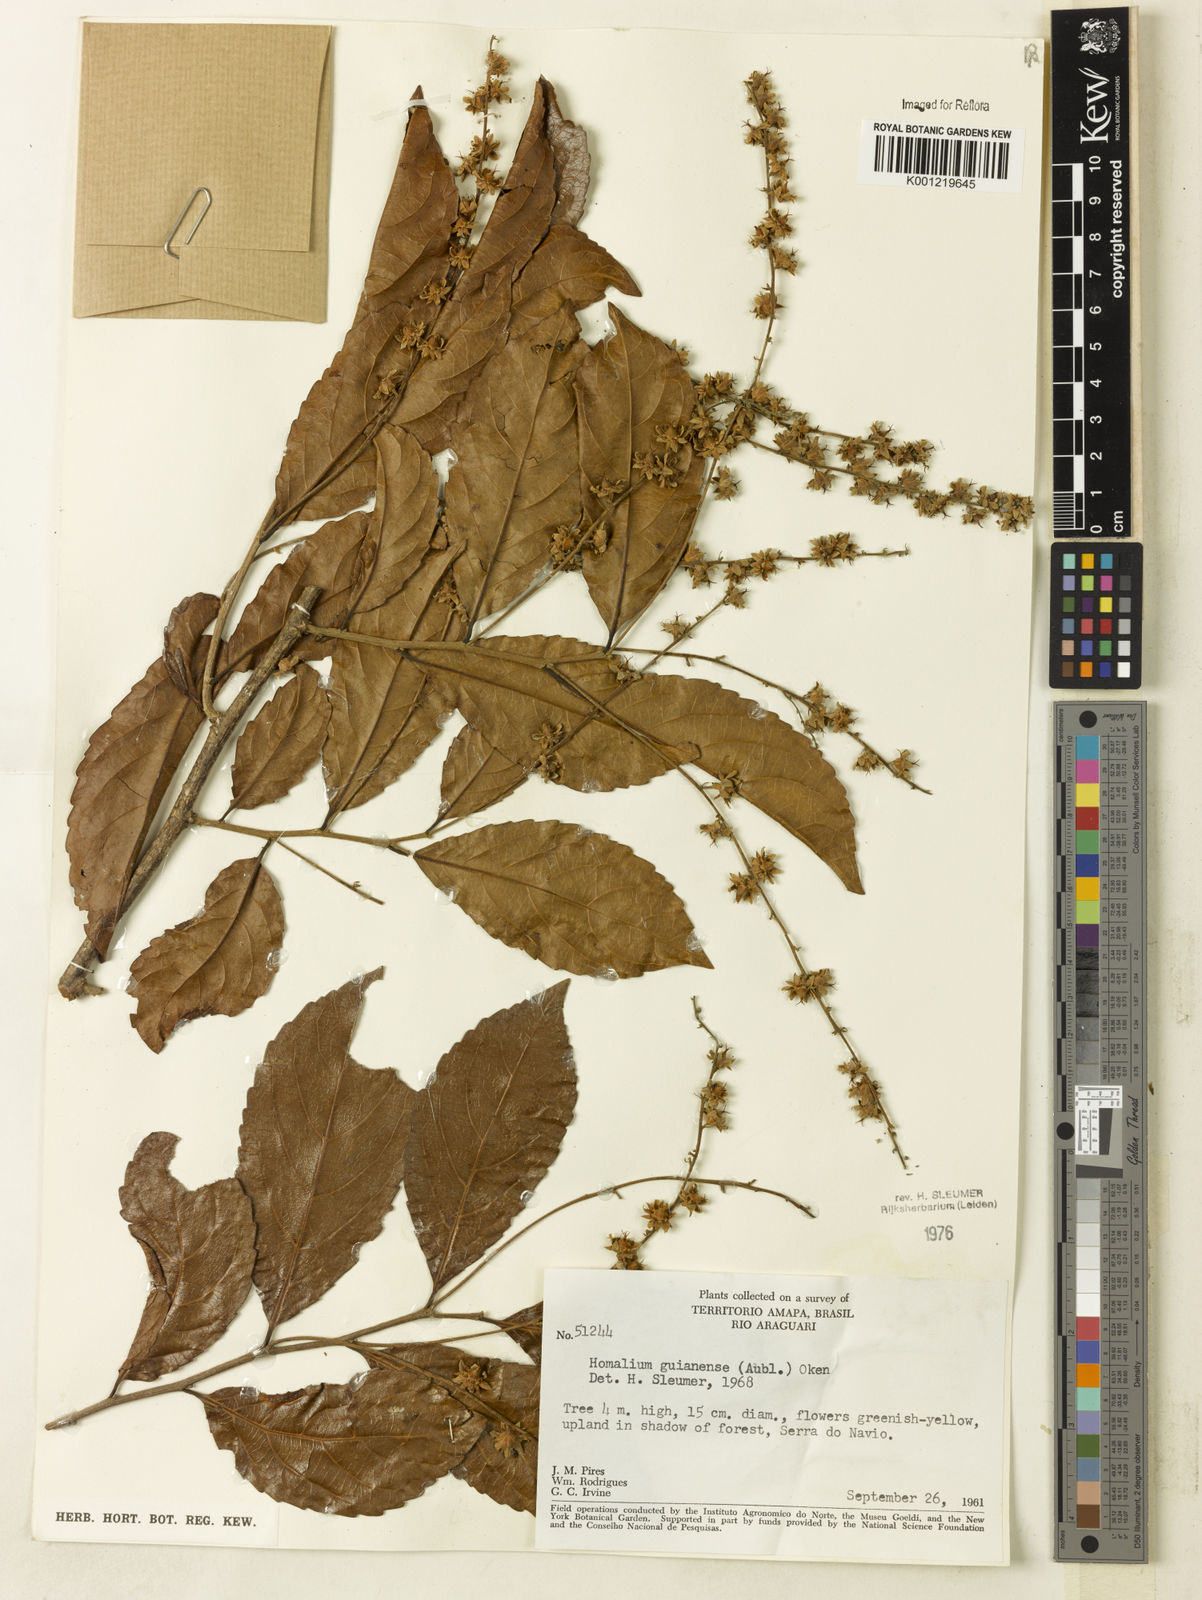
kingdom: Plantae
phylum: Tracheophyta
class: Magnoliopsida
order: Malpighiales
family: Salicaceae
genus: Homalium
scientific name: Homalium guianense
